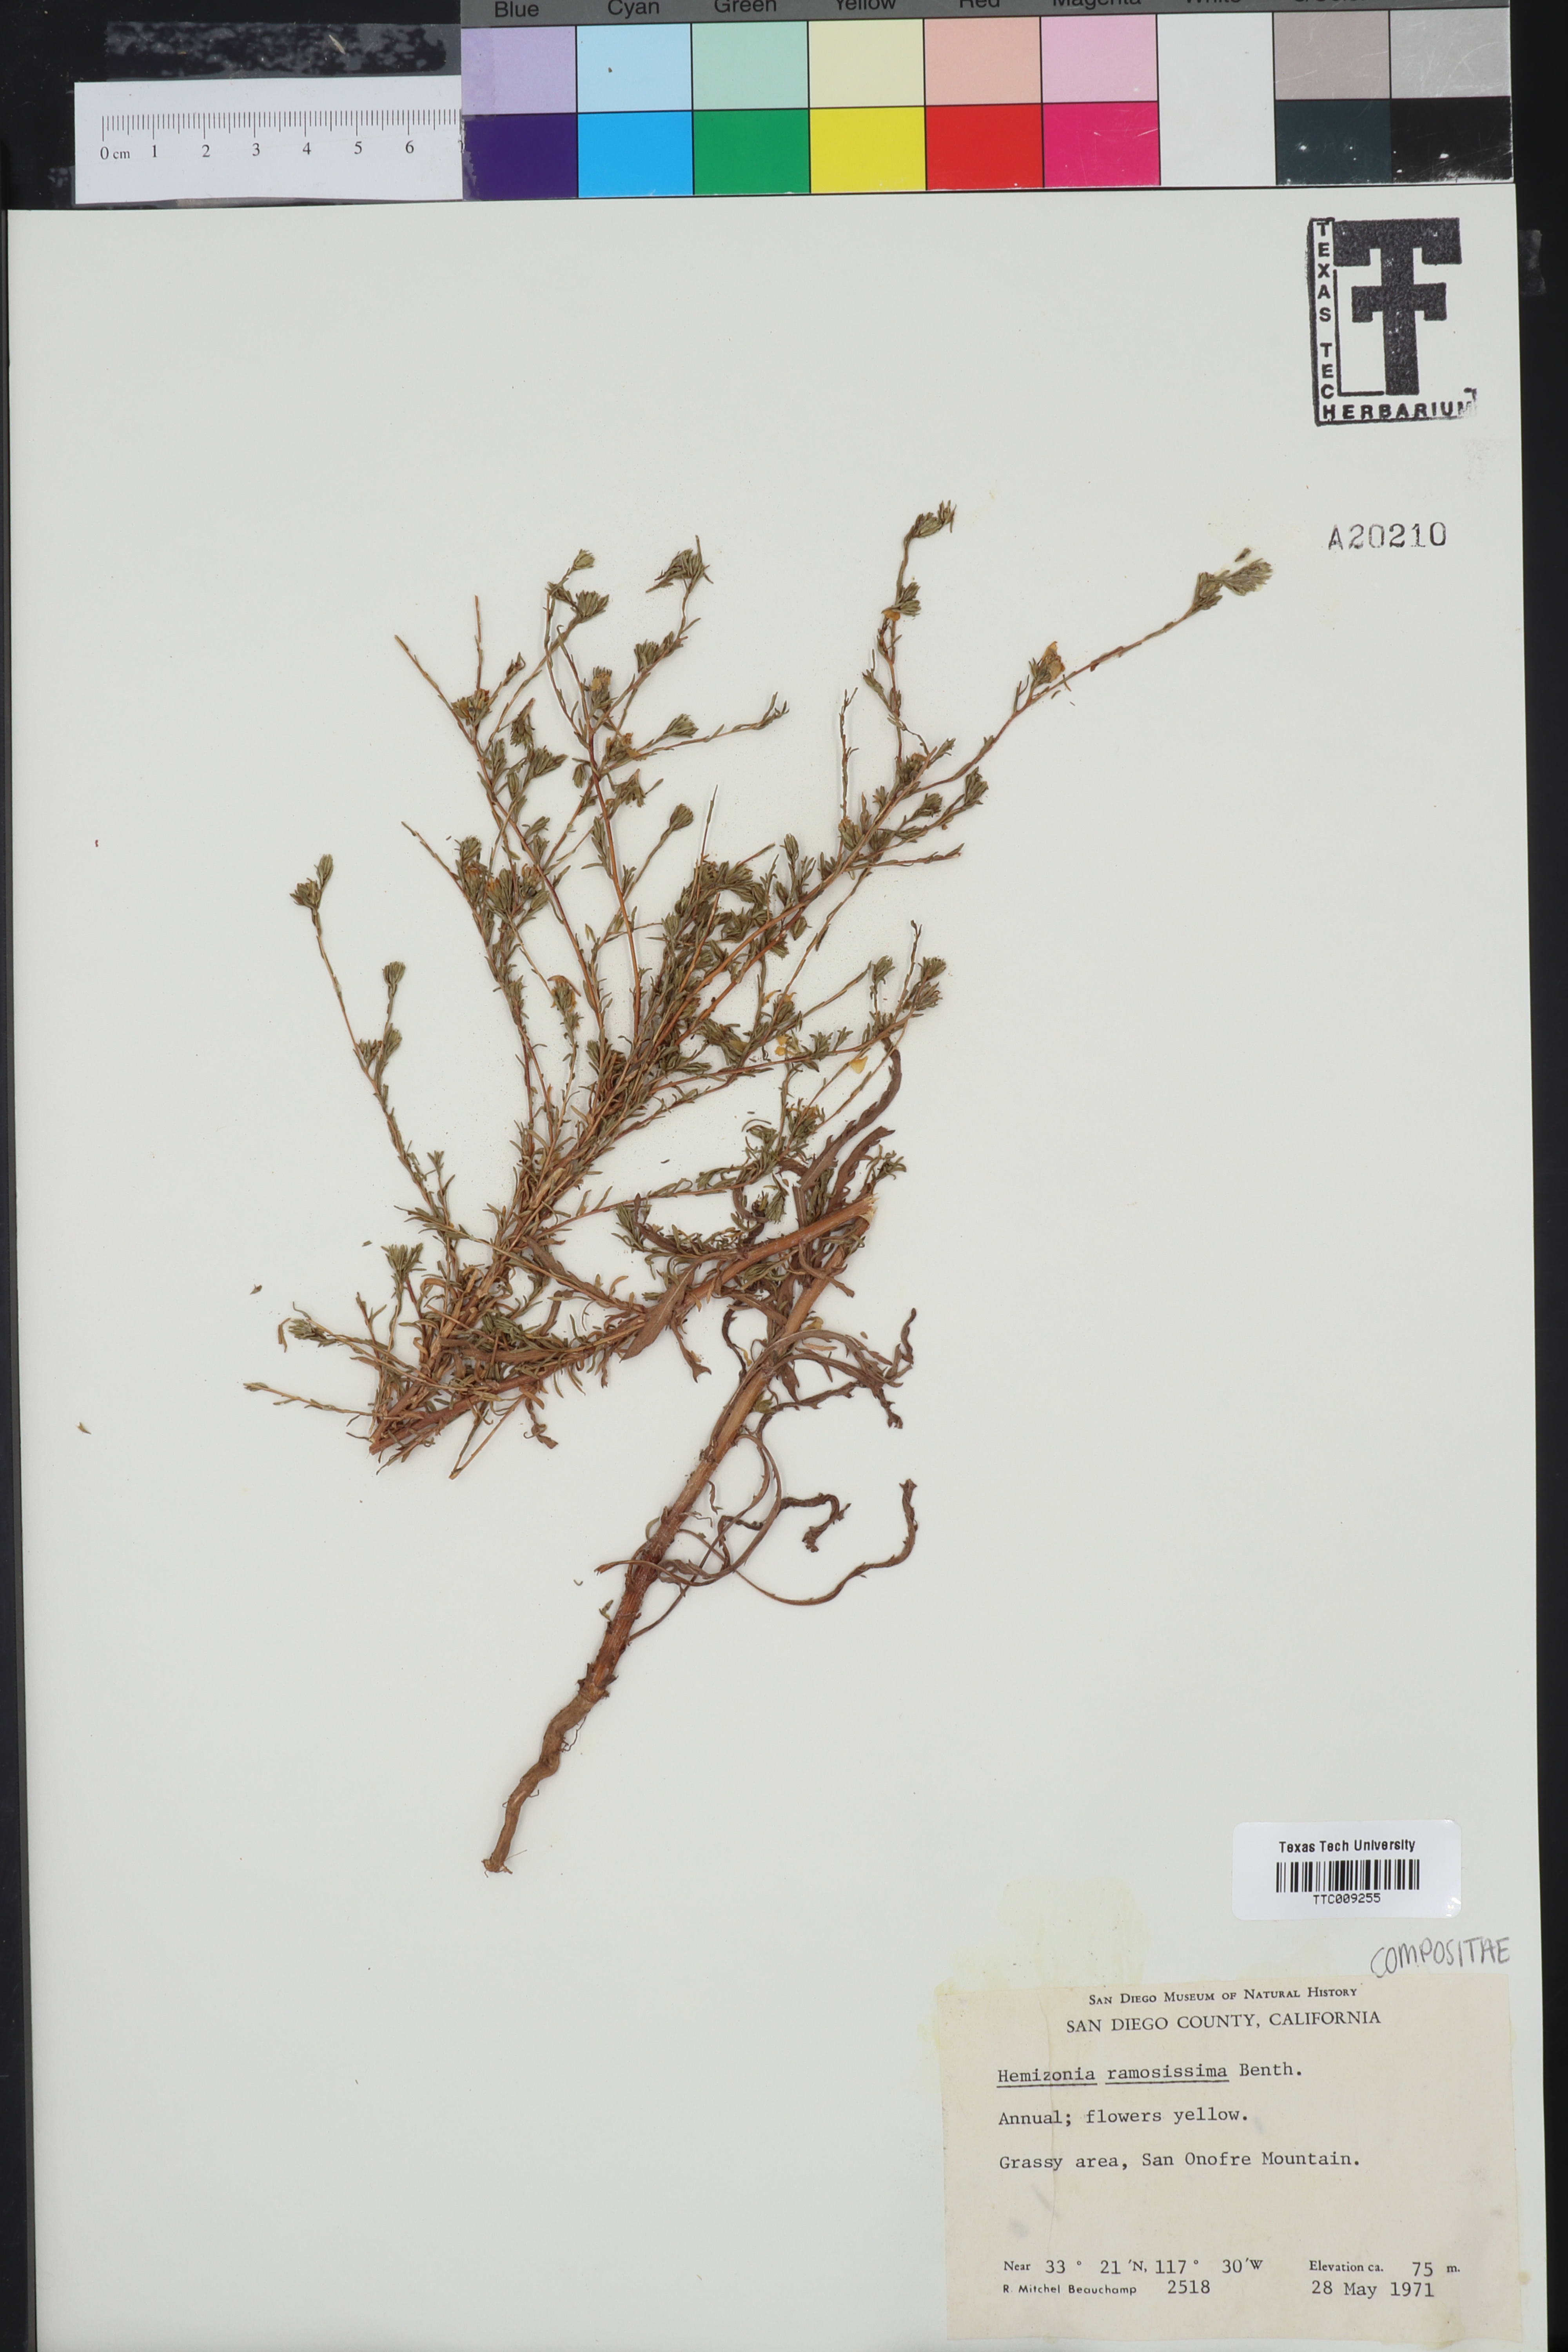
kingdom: Plantae
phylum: Tracheophyta
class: Magnoliopsida
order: Asterales
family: Asteraceae
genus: Deinandra
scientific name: Deinandra fasciculata
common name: Clustered tarweed
